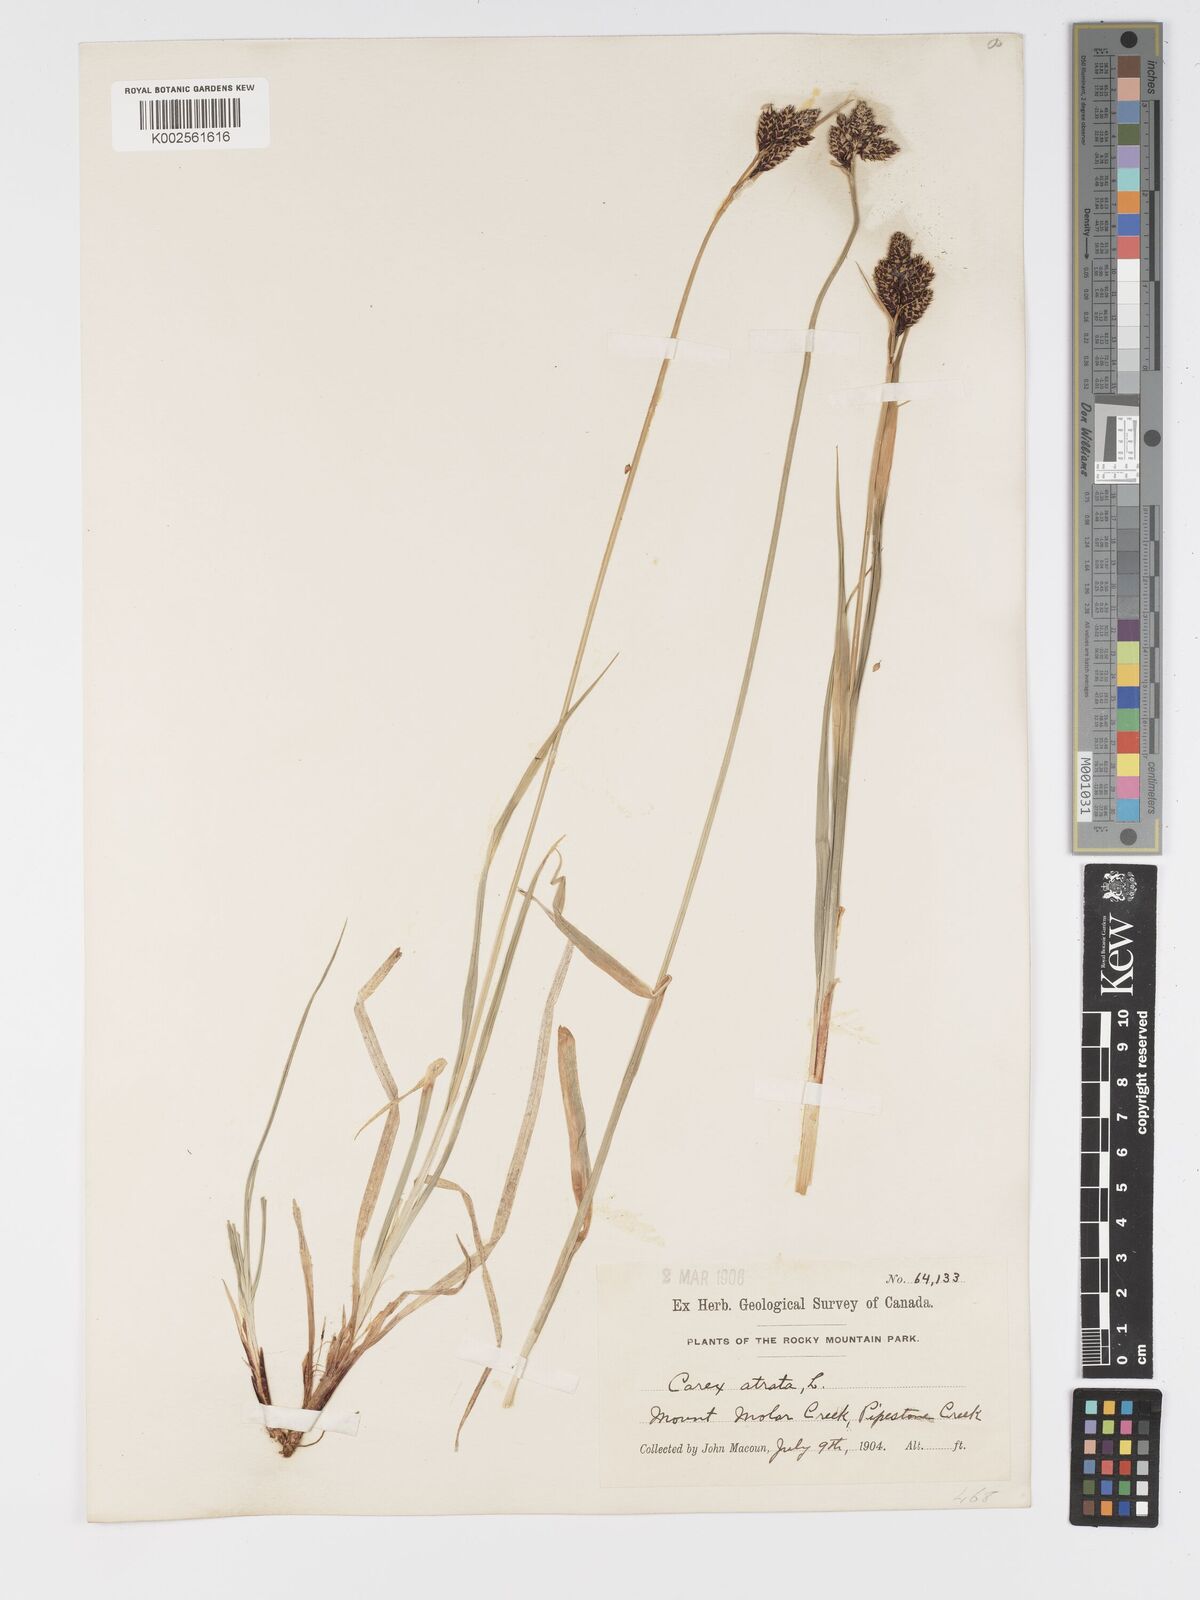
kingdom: Plantae
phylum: Tracheophyta
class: Liliopsida
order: Poales
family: Cyperaceae
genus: Carex
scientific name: Carex atrosquama
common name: Black-scale sedge
